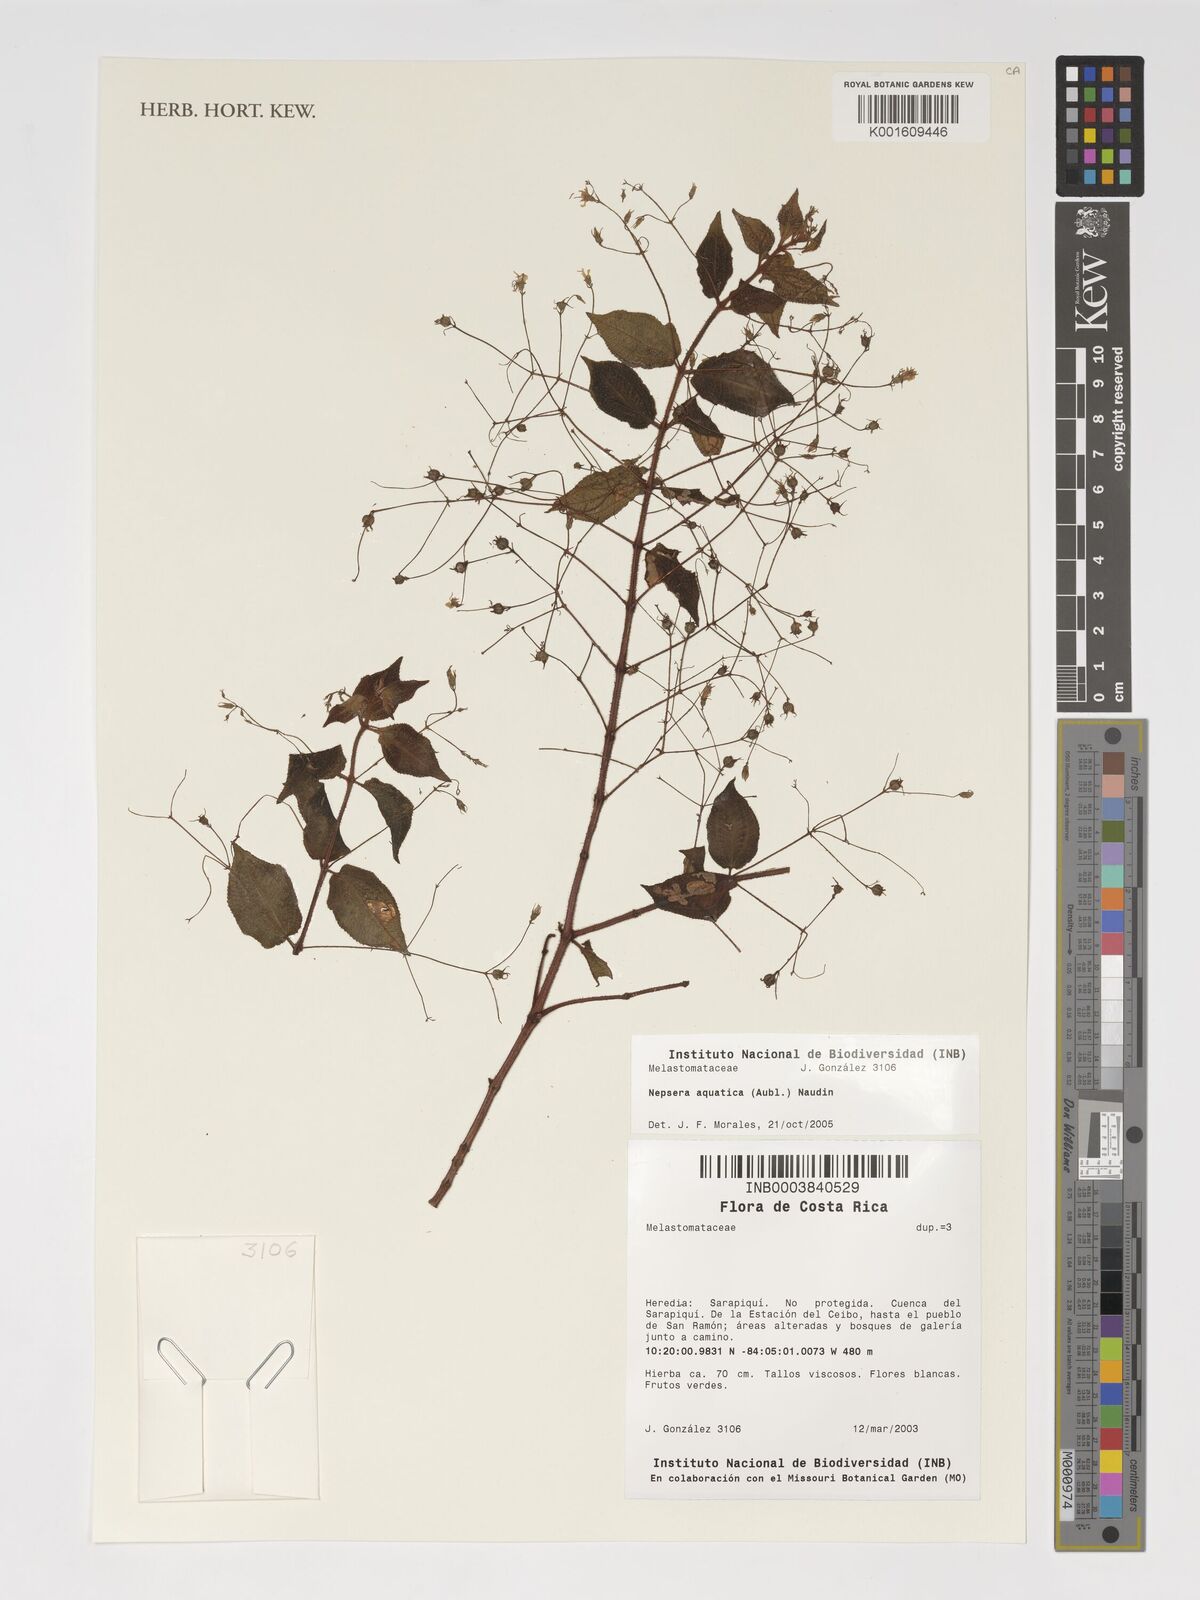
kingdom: Plantae
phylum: Tracheophyta
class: Magnoliopsida
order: Myrtales
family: Melastomataceae
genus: Nepsera
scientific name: Nepsera aquatica
